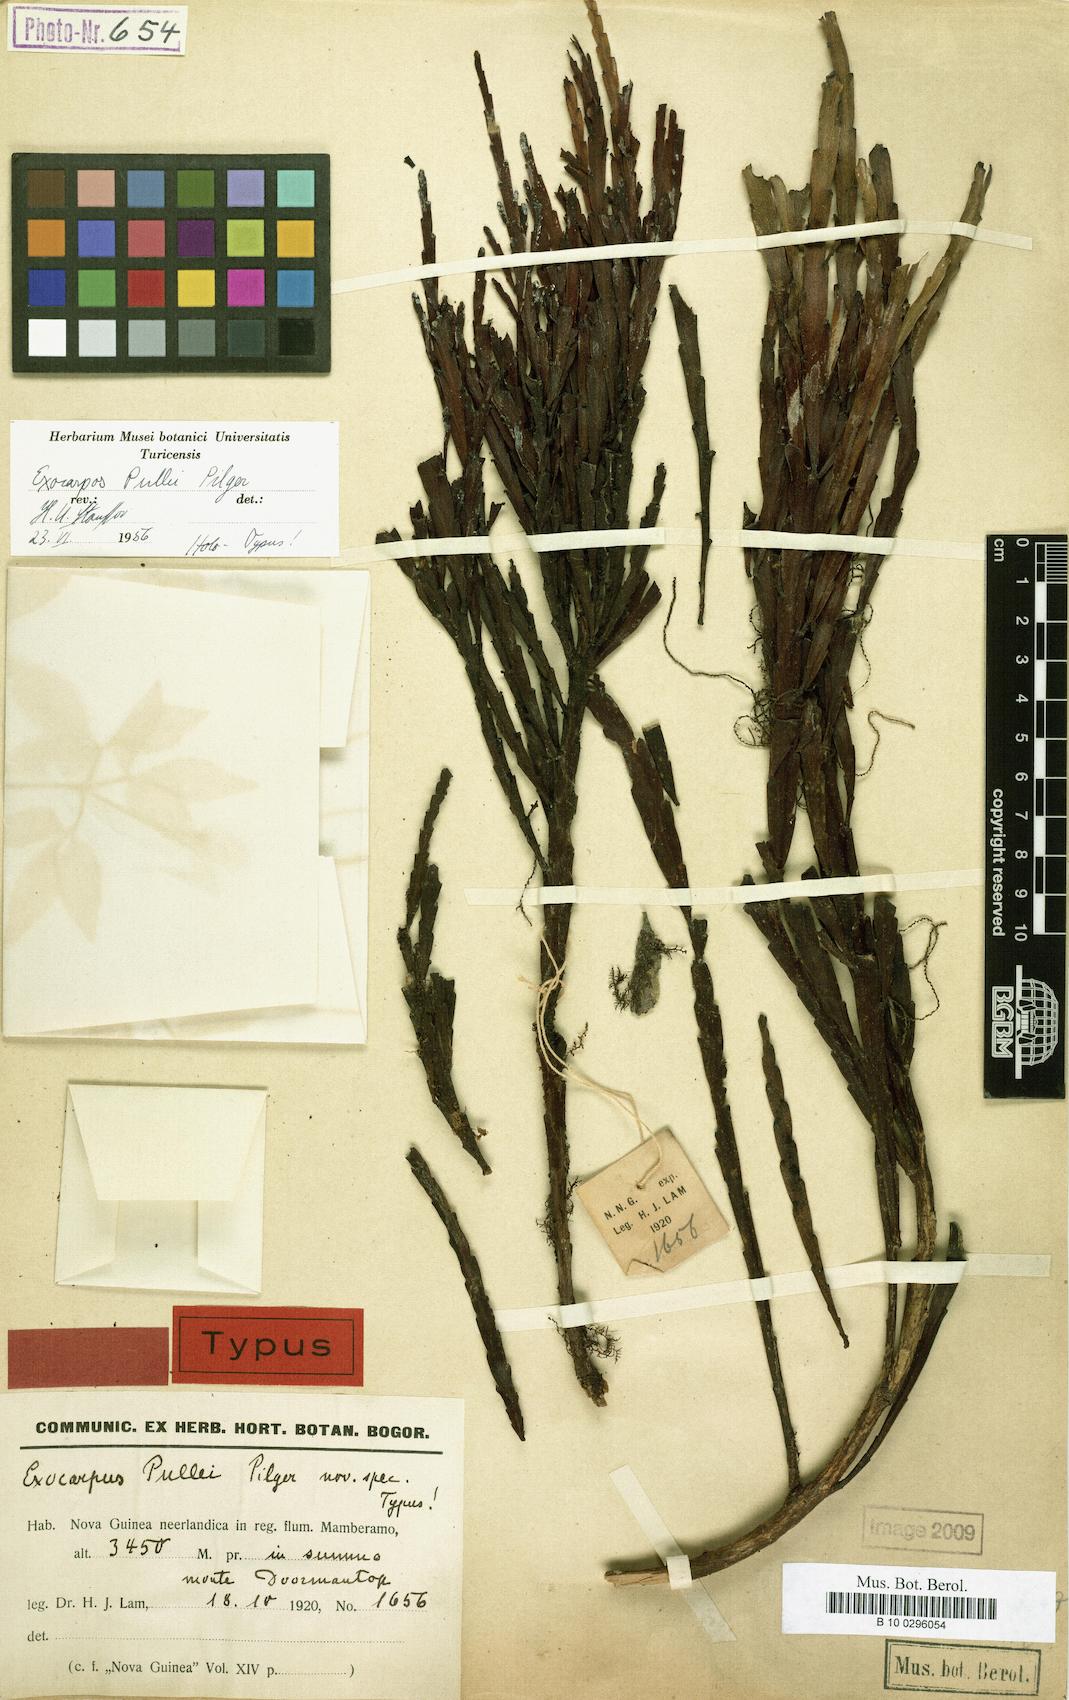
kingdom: Plantae
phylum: Tracheophyta
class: Magnoliopsida
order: Santalales
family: Santalaceae
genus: Exocarpos
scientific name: Exocarpos pullei
